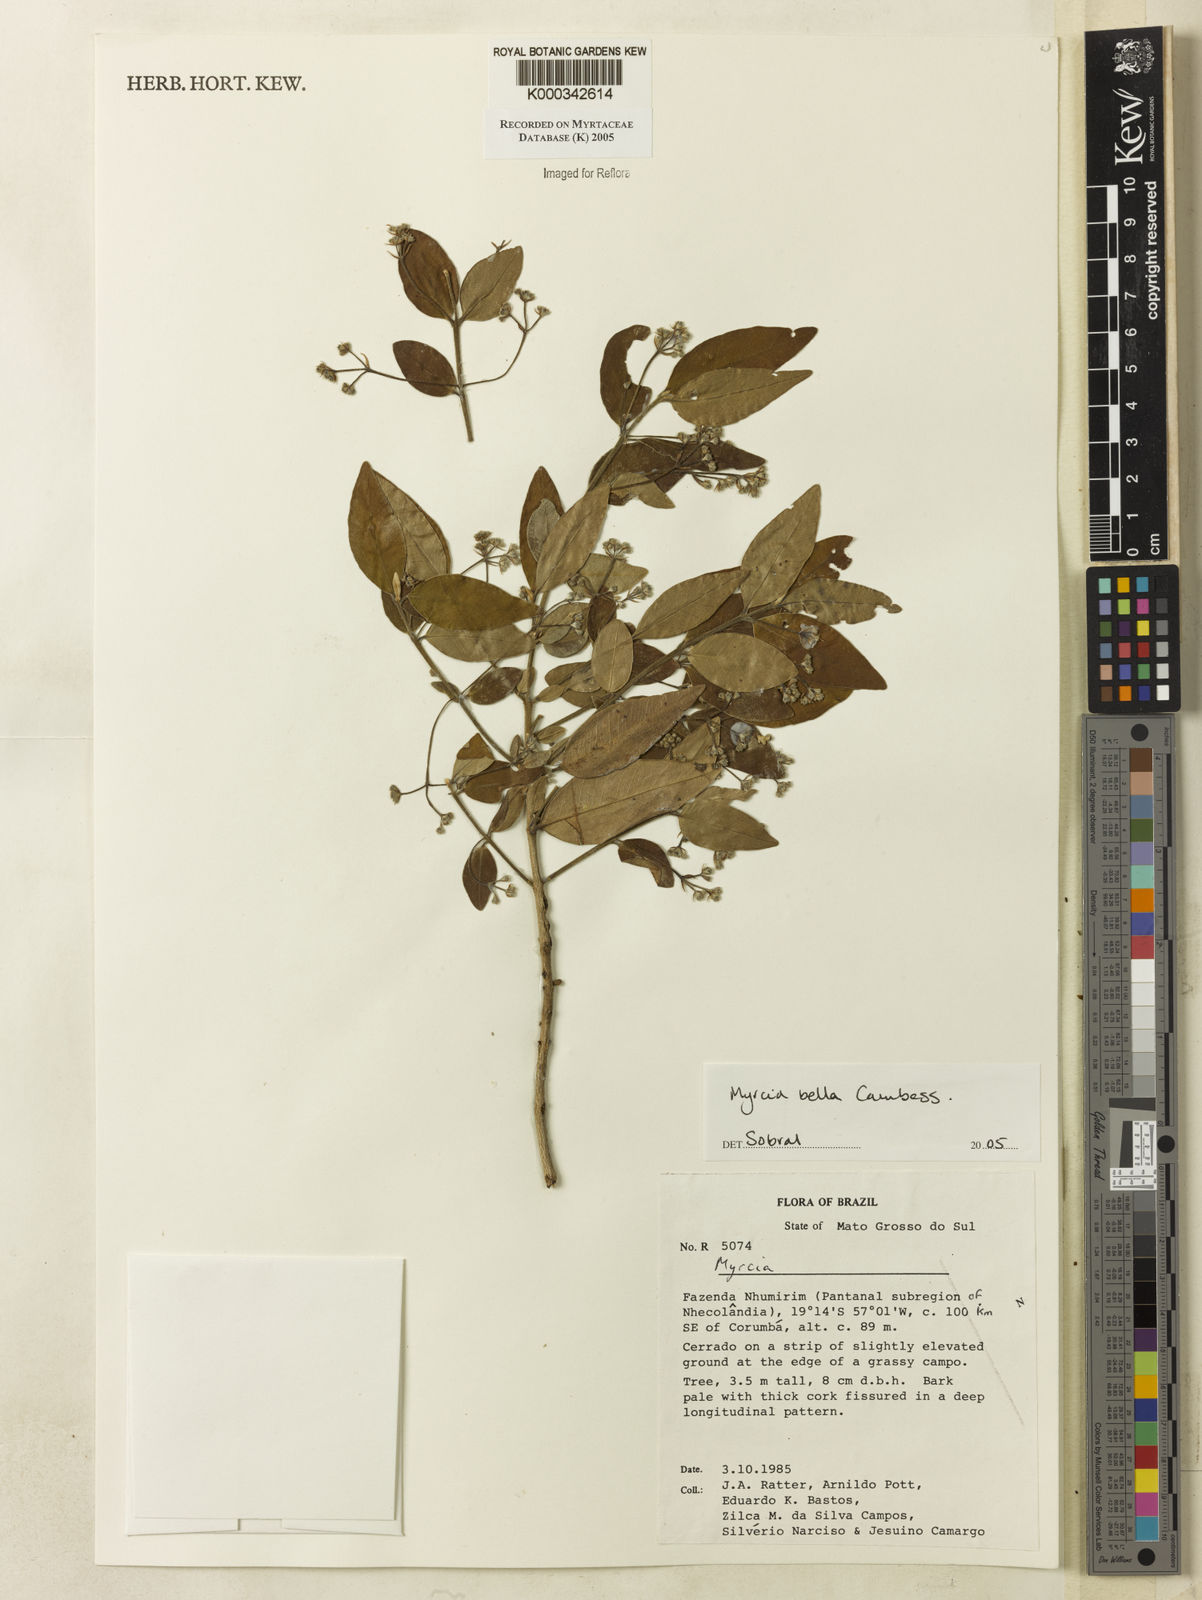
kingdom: Plantae
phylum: Tracheophyta
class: Magnoliopsida
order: Myrtales
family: Myrtaceae
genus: Myrcia
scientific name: Myrcia bella
